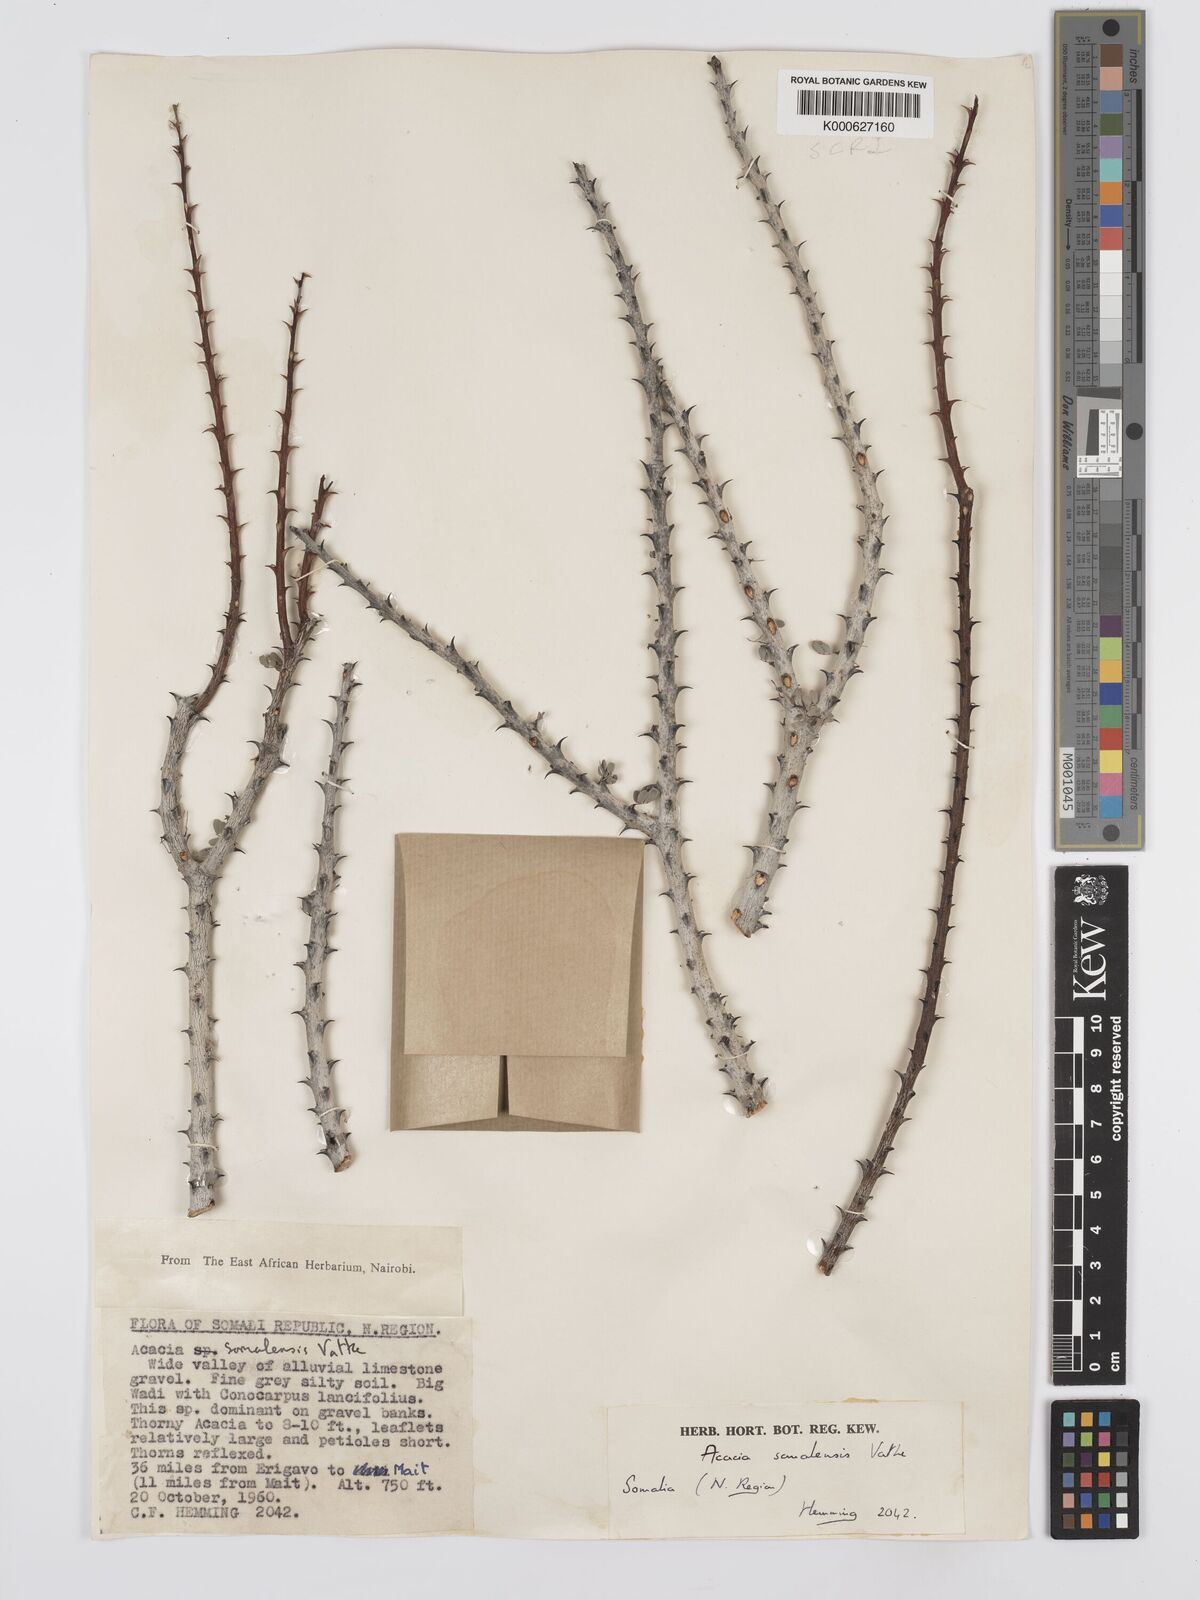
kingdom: Plantae
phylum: Tracheophyta
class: Magnoliopsida
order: Fabales
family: Fabaceae
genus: Senegalia
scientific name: Senegalia somalensis
